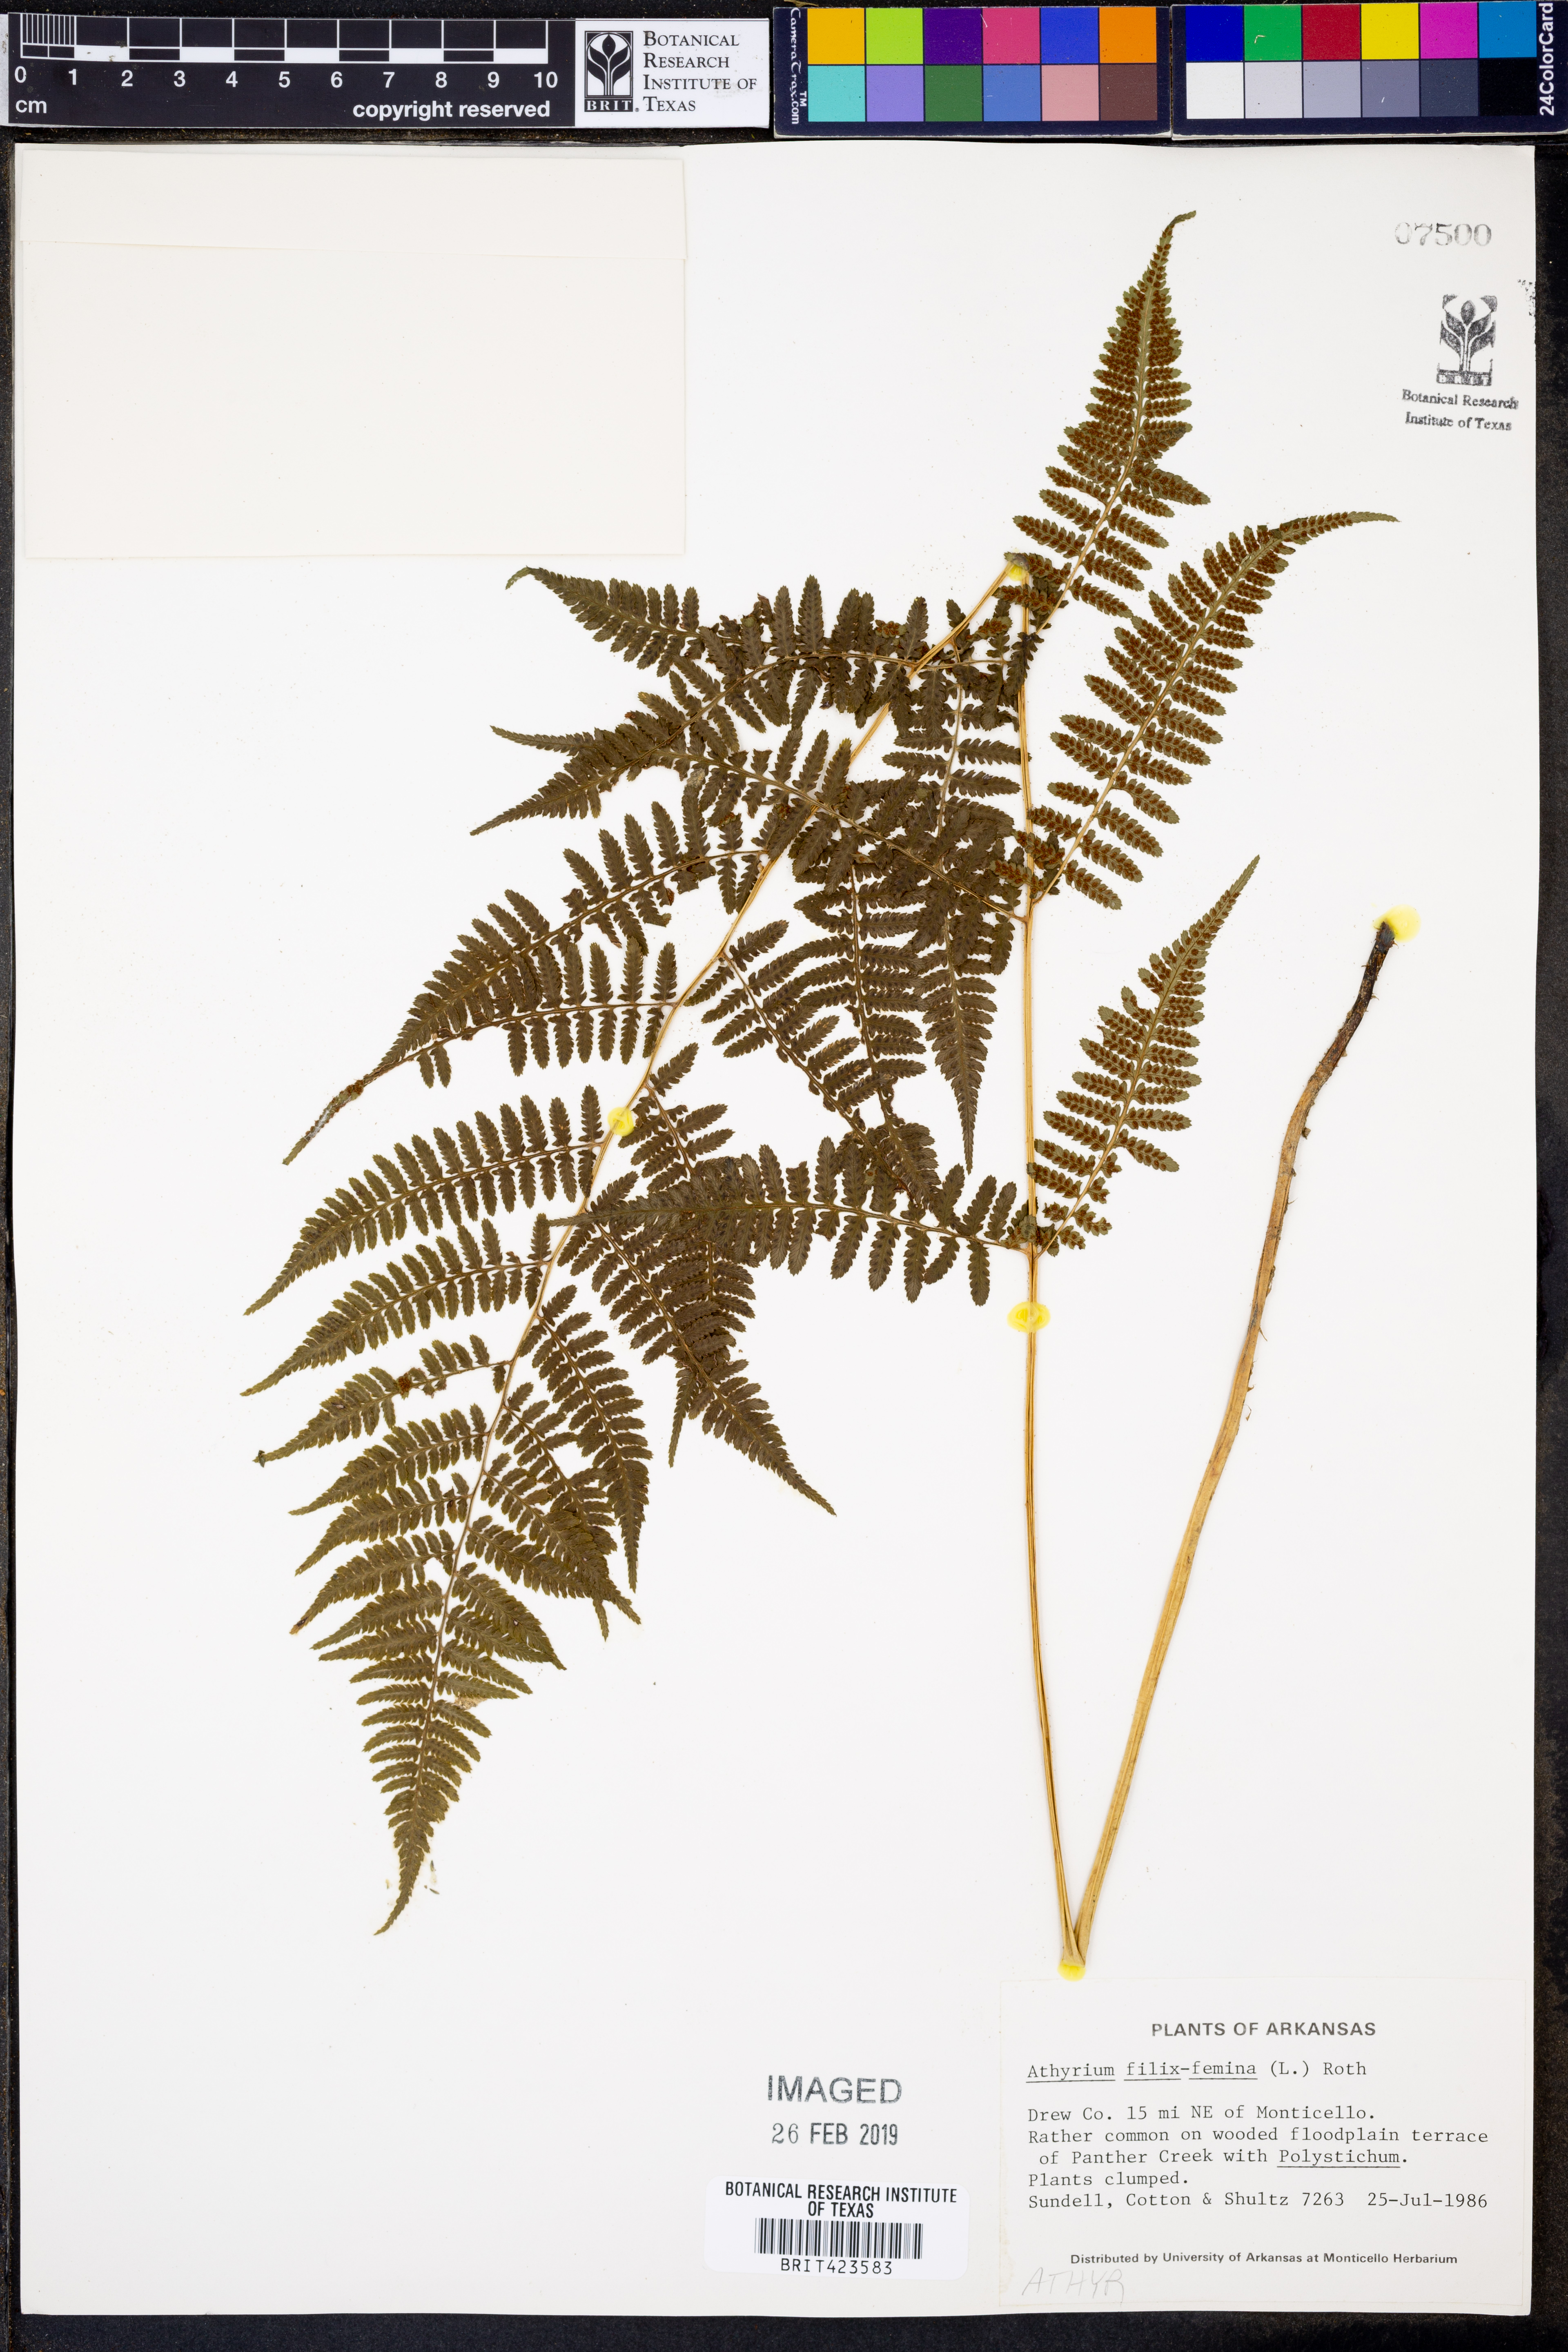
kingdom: Plantae
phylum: Tracheophyta
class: Polypodiopsida
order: Polypodiales
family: Athyriaceae
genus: Athyrium
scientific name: Athyrium filix-femina
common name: Lady fern
